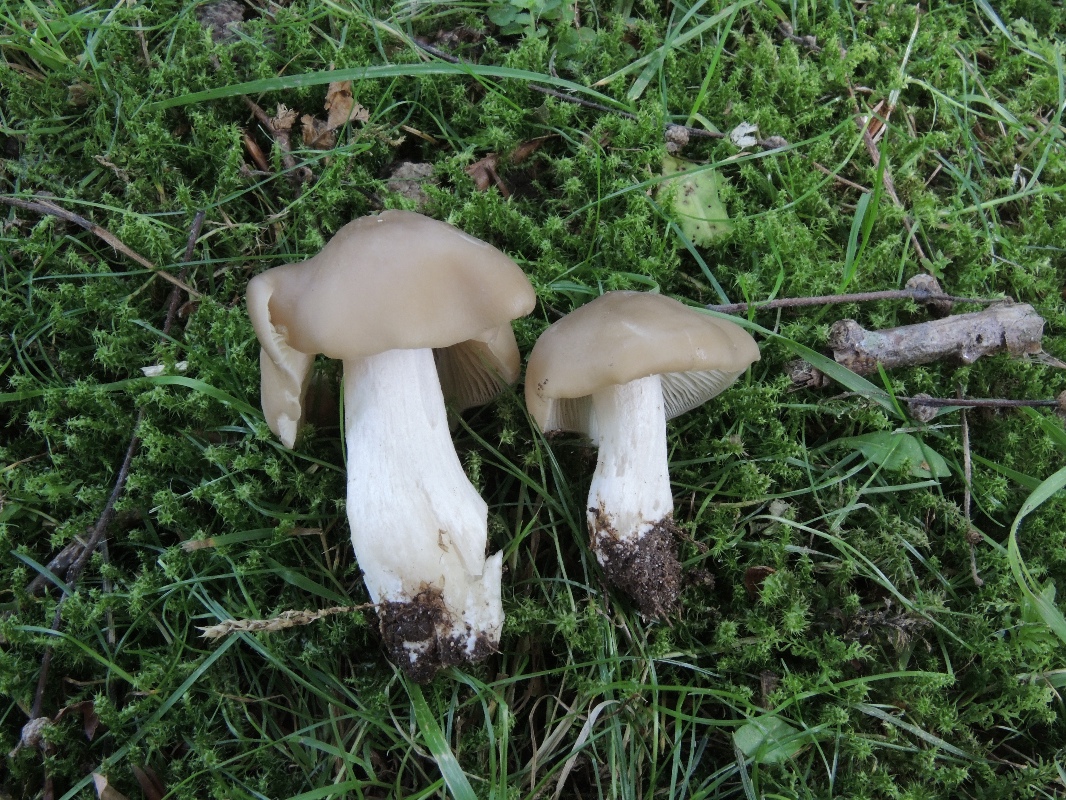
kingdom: Fungi
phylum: Basidiomycota
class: Agaricomycetes
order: Agaricales
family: Entolomataceae
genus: Entoloma
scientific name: Entoloma lividoalbum
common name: lysstokket rødblad
